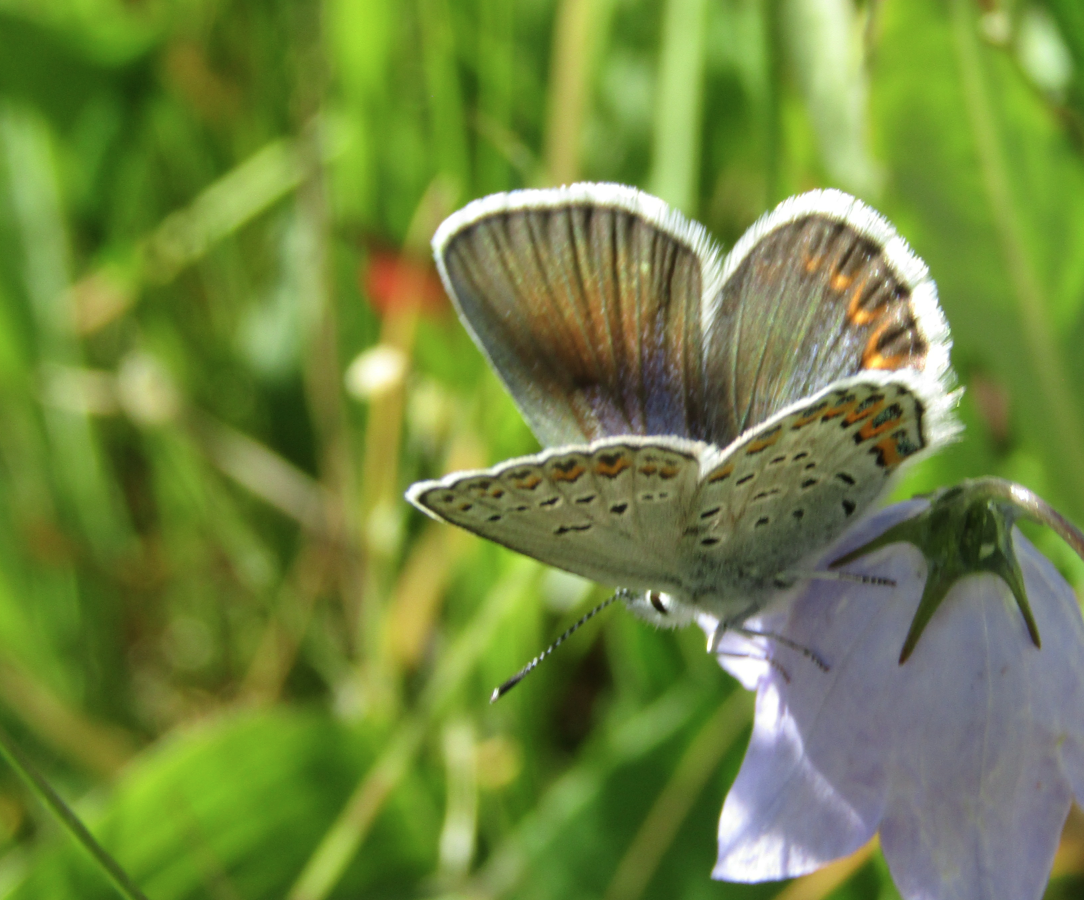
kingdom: Animalia
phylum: Arthropoda
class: Insecta
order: Lepidoptera
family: Lycaenidae
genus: Lycaeides
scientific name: Lycaeides melissa
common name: Melissa Blue
